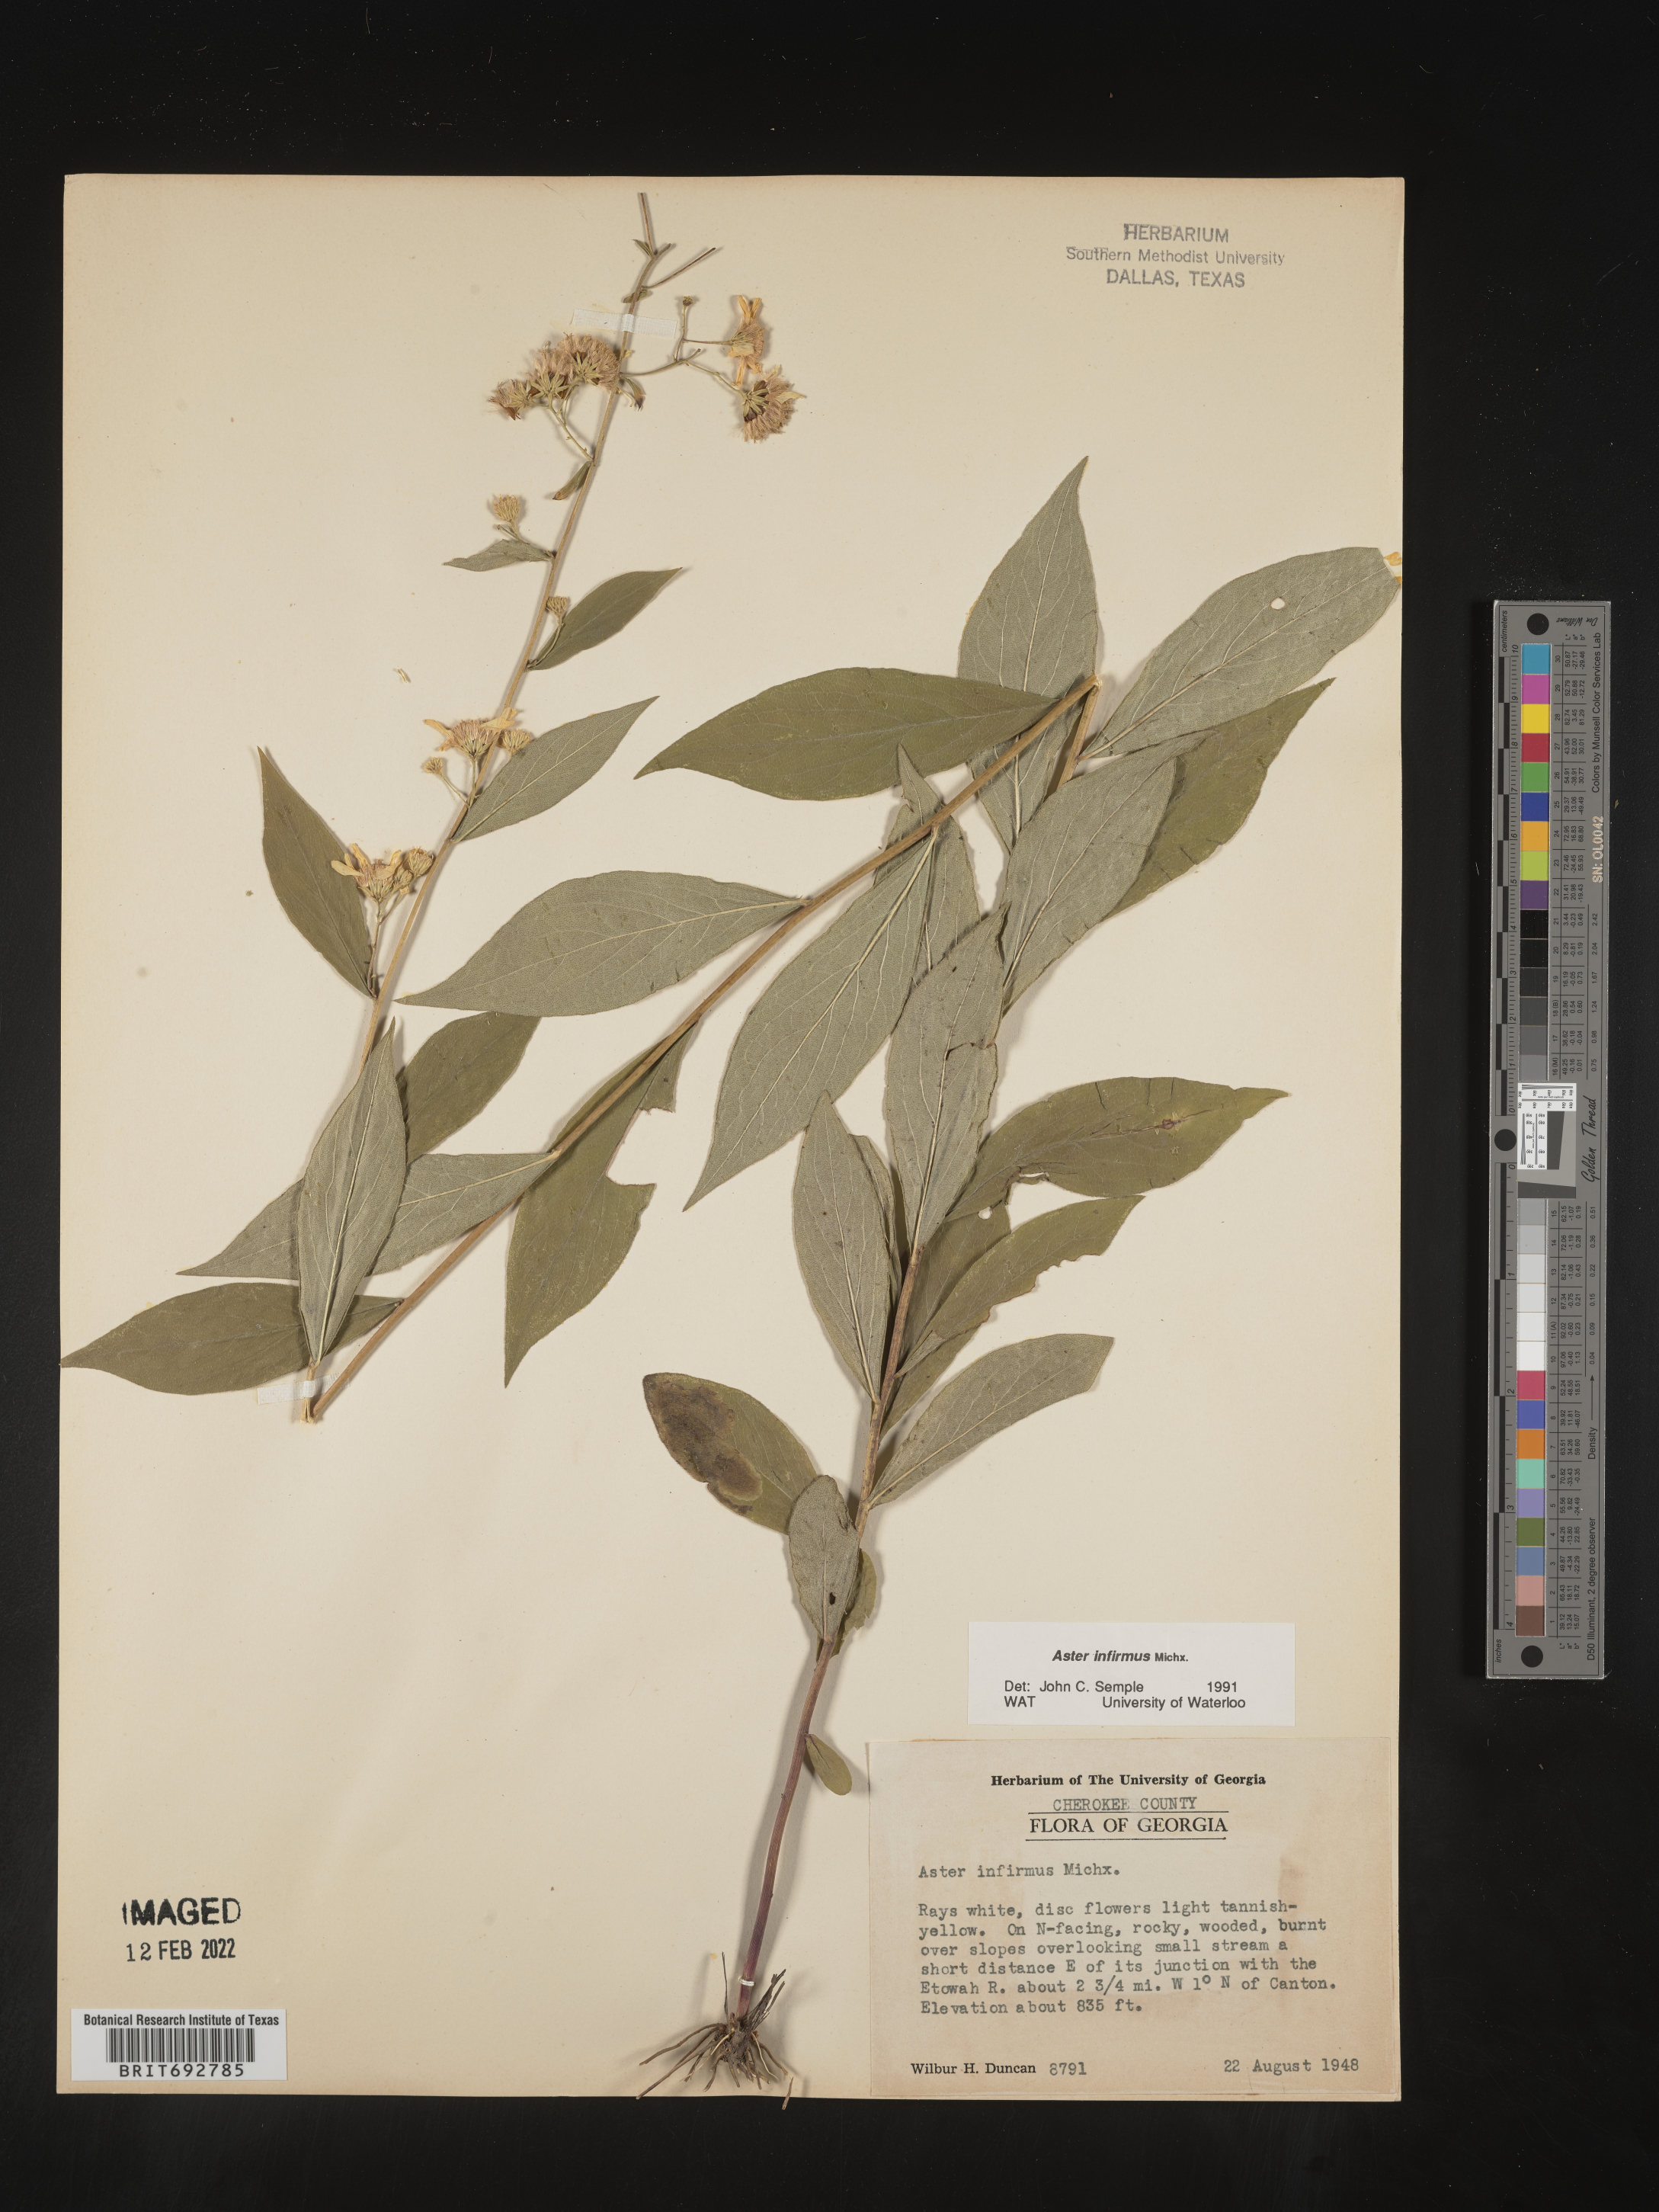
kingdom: Plantae
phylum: Tracheophyta
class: Magnoliopsida
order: Asterales
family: Asteraceae
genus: Doellingeria
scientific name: Doellingeria infirma
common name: Appalachian flat-top aster
